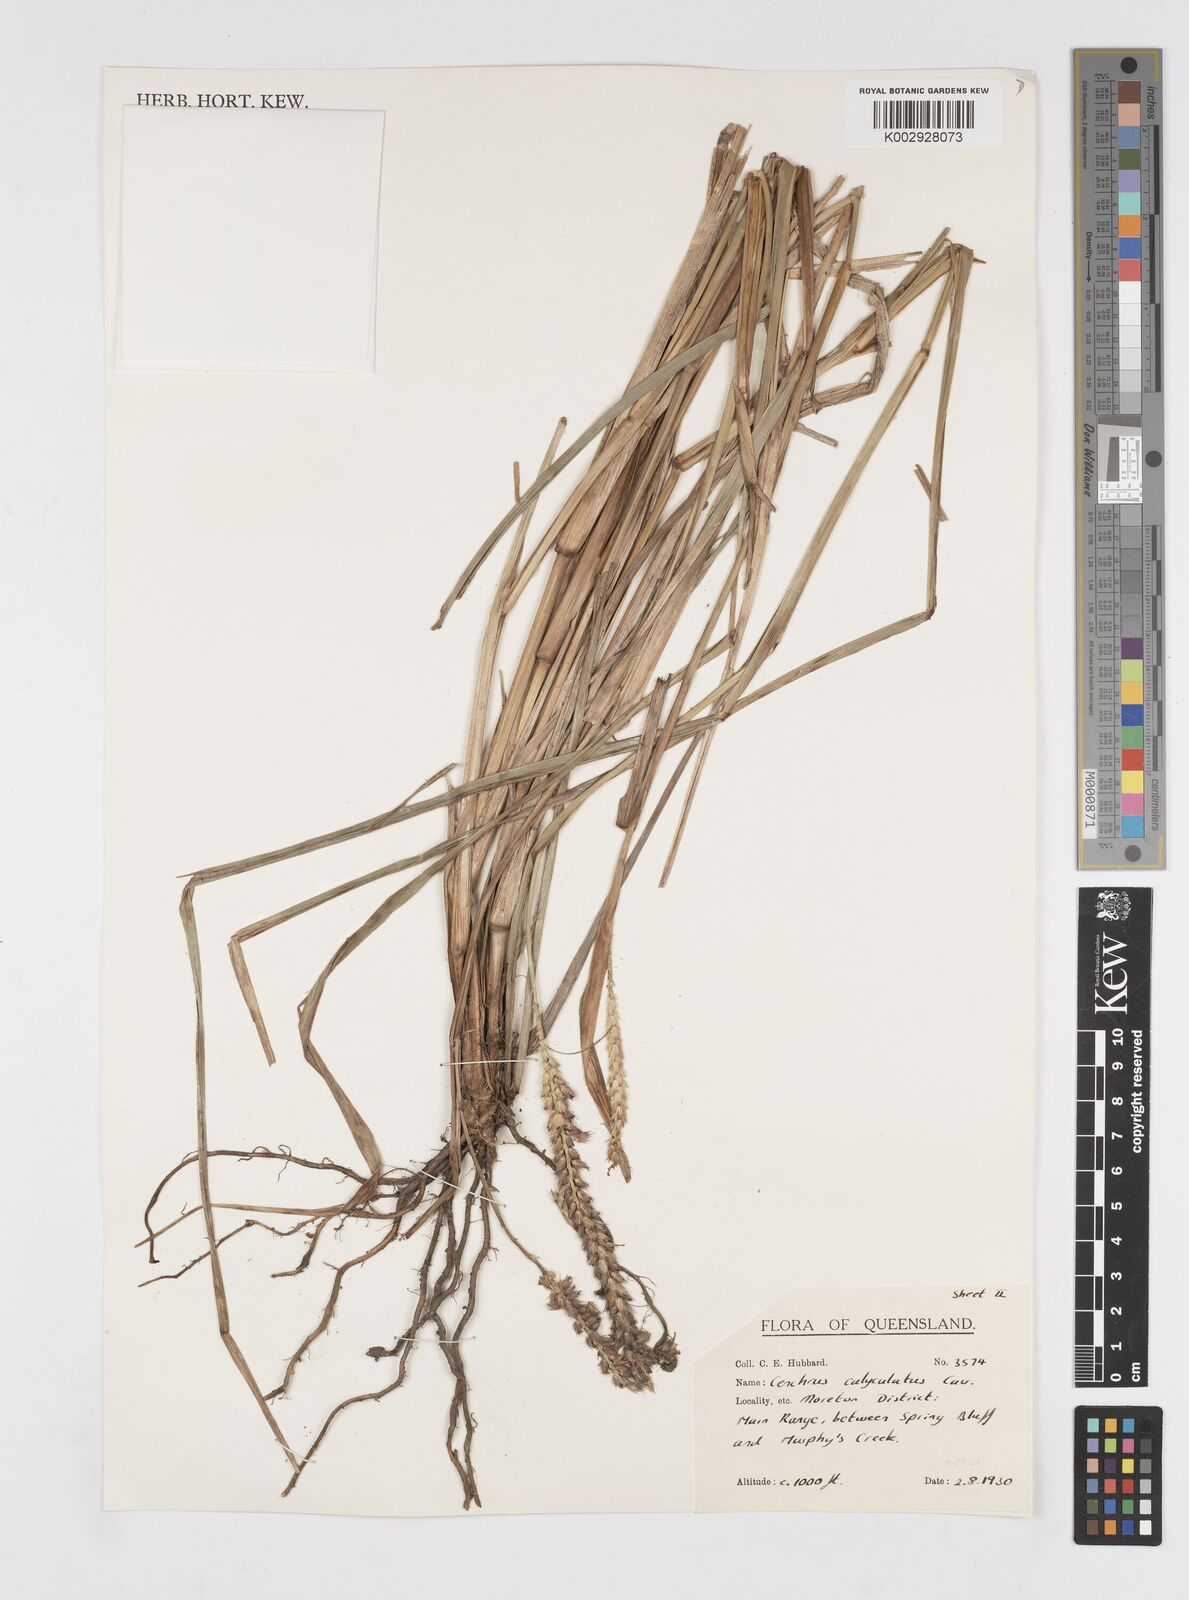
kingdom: Plantae
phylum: Tracheophyta
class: Liliopsida
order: Poales
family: Poaceae
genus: Cenchrus
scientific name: Cenchrus caliculatus
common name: Large bur grass
